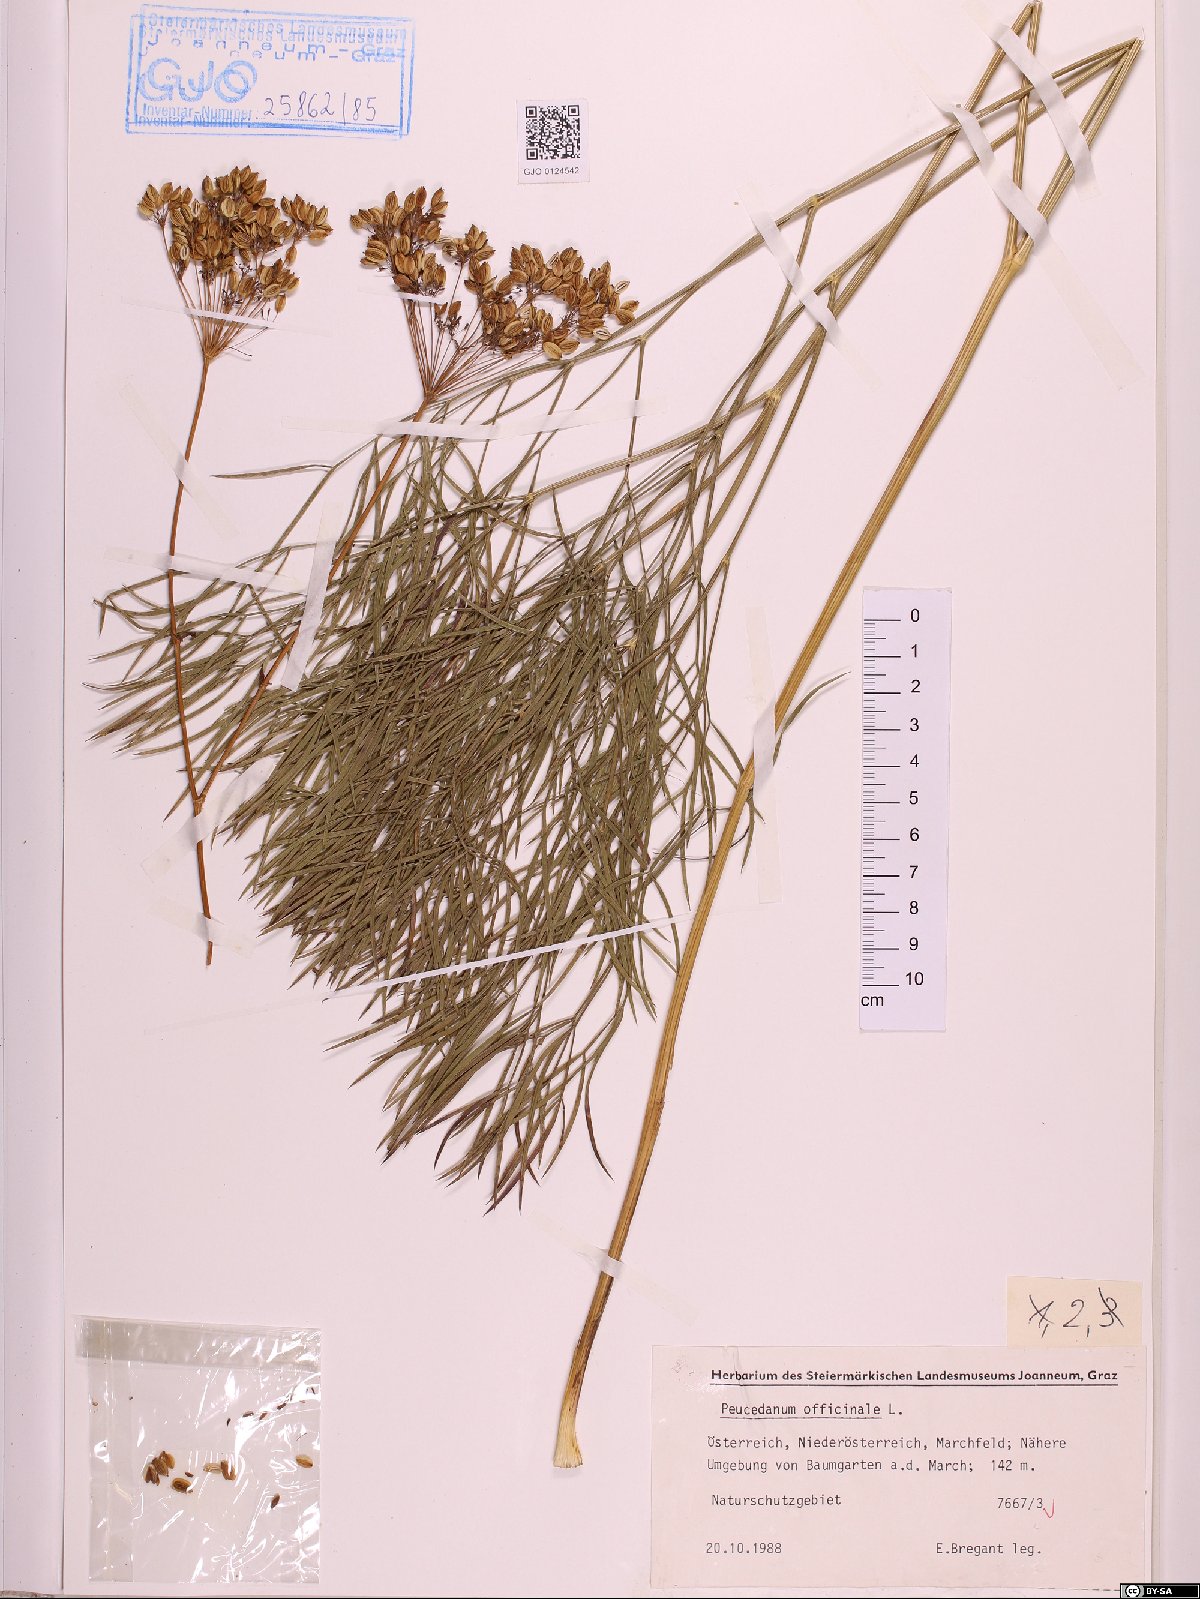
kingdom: Plantae
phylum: Tracheophyta
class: Magnoliopsida
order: Apiales
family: Apiaceae
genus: Peucedanum
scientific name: Peucedanum officinale
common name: Sulphurweed
